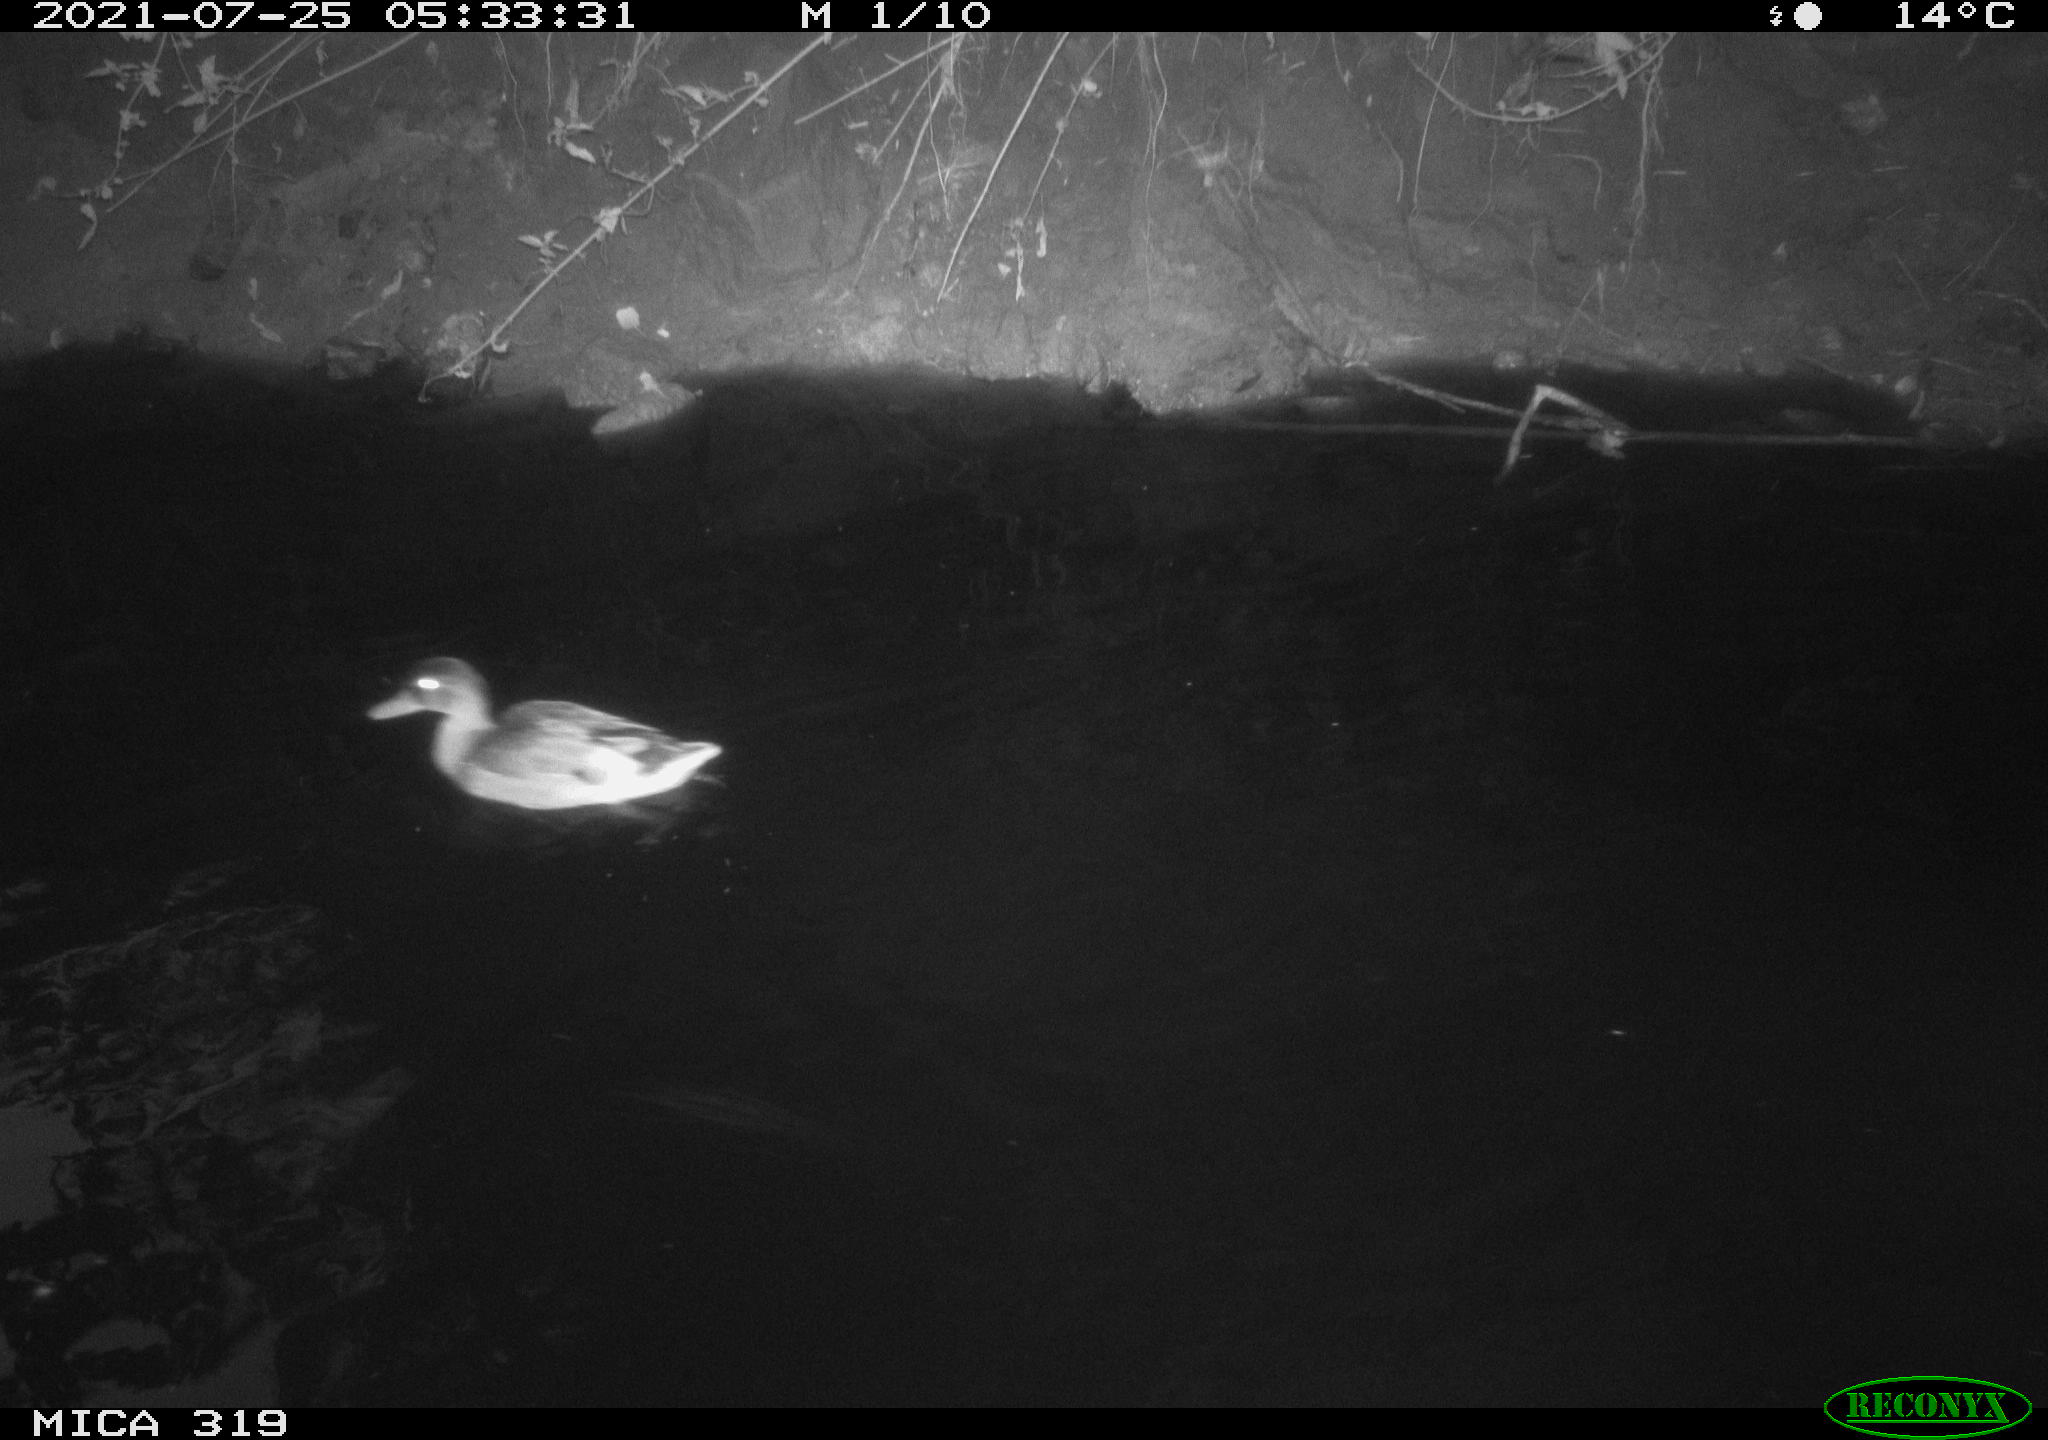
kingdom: Animalia
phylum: Chordata
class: Aves
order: Anseriformes
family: Anatidae
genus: Anas
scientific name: Anas platyrhynchos
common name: Mallard
